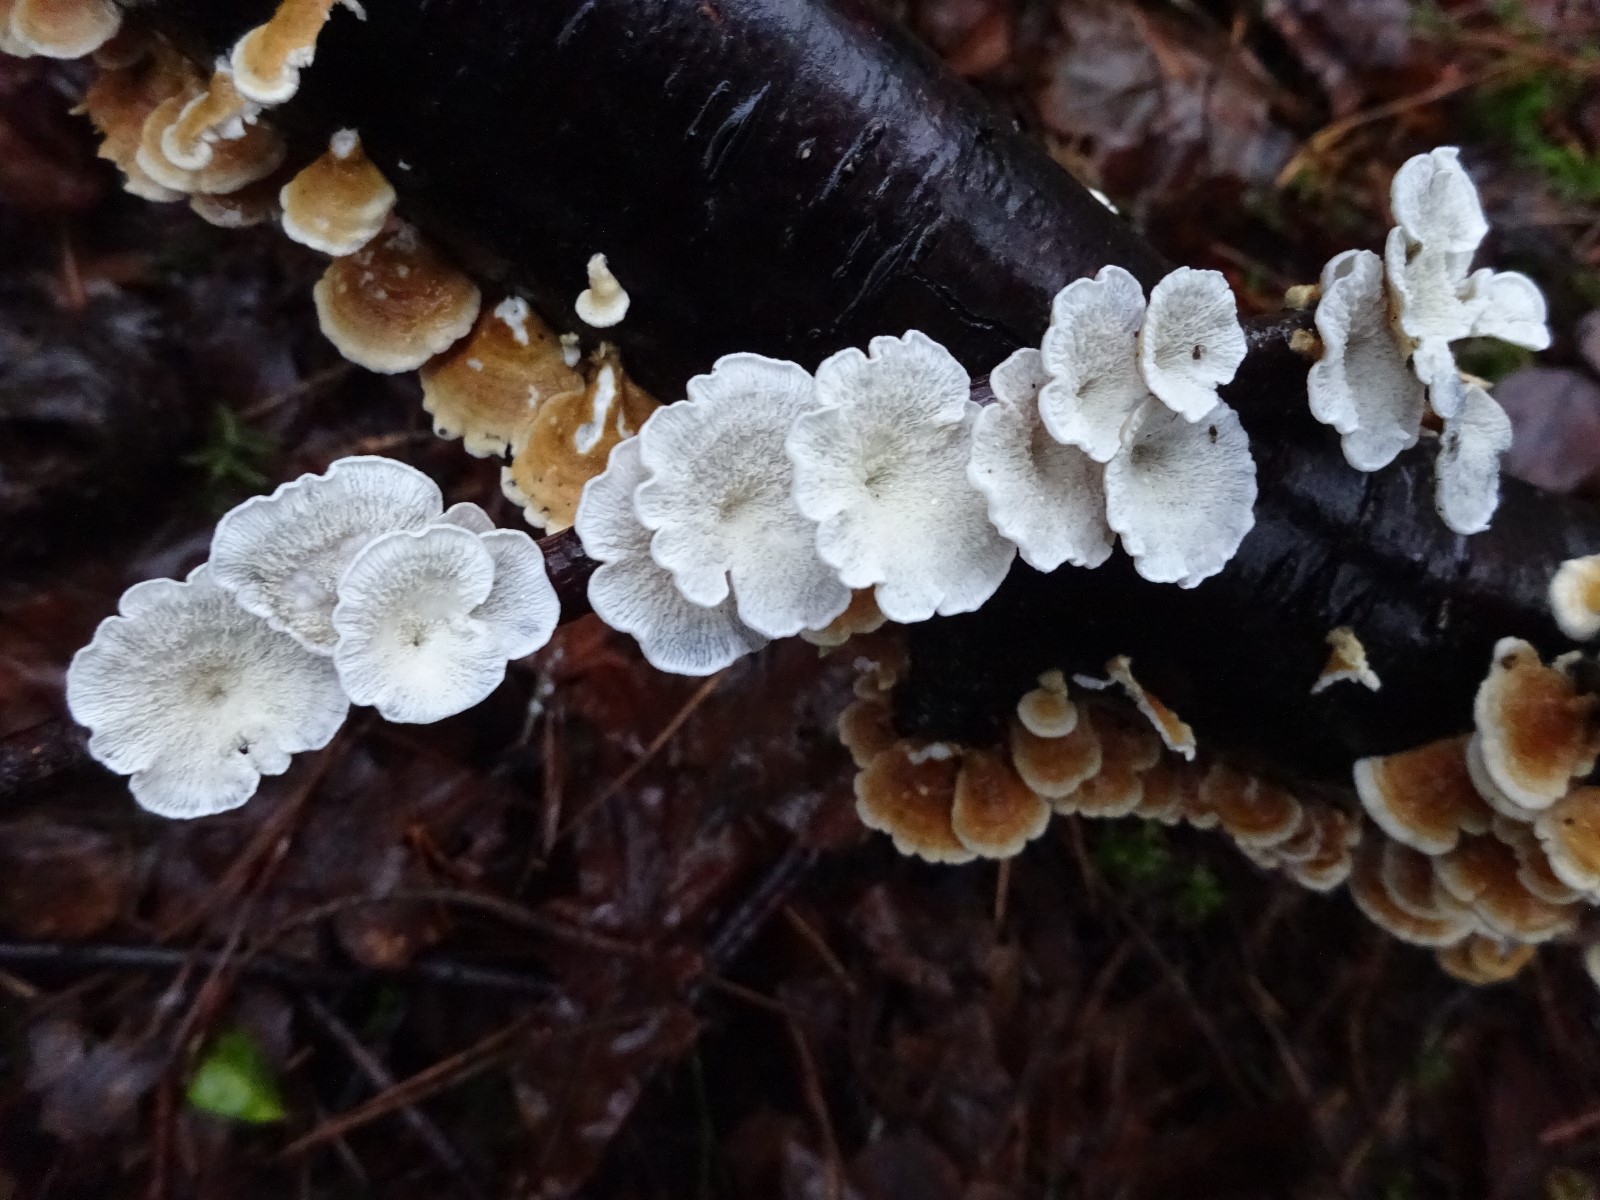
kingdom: Fungi
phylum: Basidiomycota
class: Agaricomycetes
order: Amylocorticiales
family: Amylocorticiaceae
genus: Plicaturopsis
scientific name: Plicaturopsis crispa
